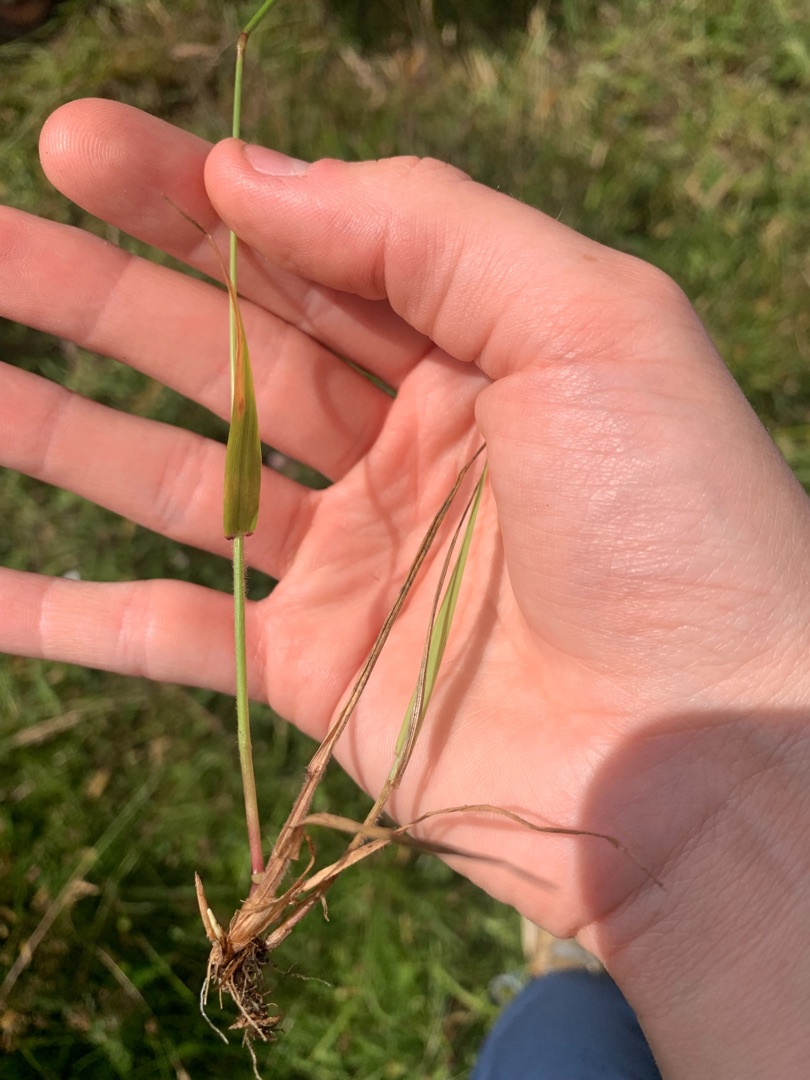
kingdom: Plantae
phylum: Tracheophyta
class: Liliopsida
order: Poales
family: Poaceae
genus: Anthoxanthum
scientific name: Anthoxanthum odoratum
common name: Vellugtende gulaks
